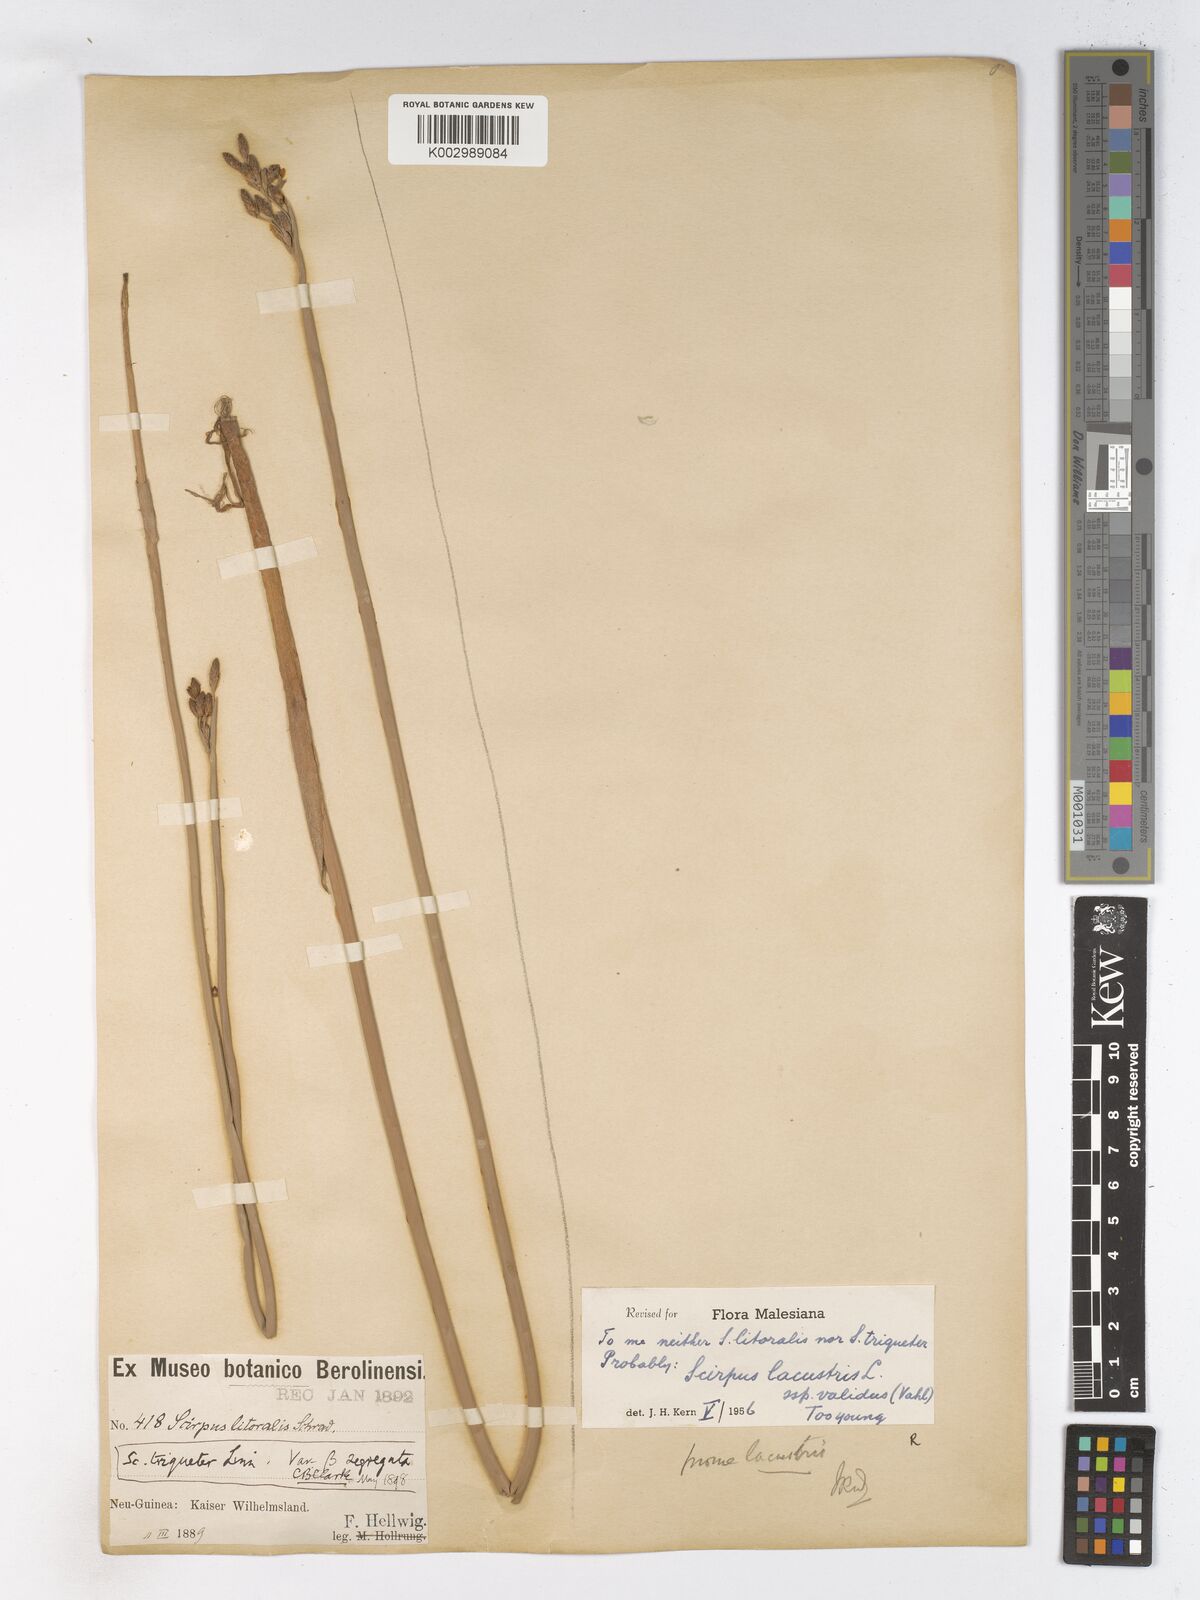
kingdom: Plantae
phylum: Tracheophyta
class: Liliopsida
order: Poales
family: Cyperaceae
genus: Schoenoplectus
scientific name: Schoenoplectus lacustris
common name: Common club-rush
